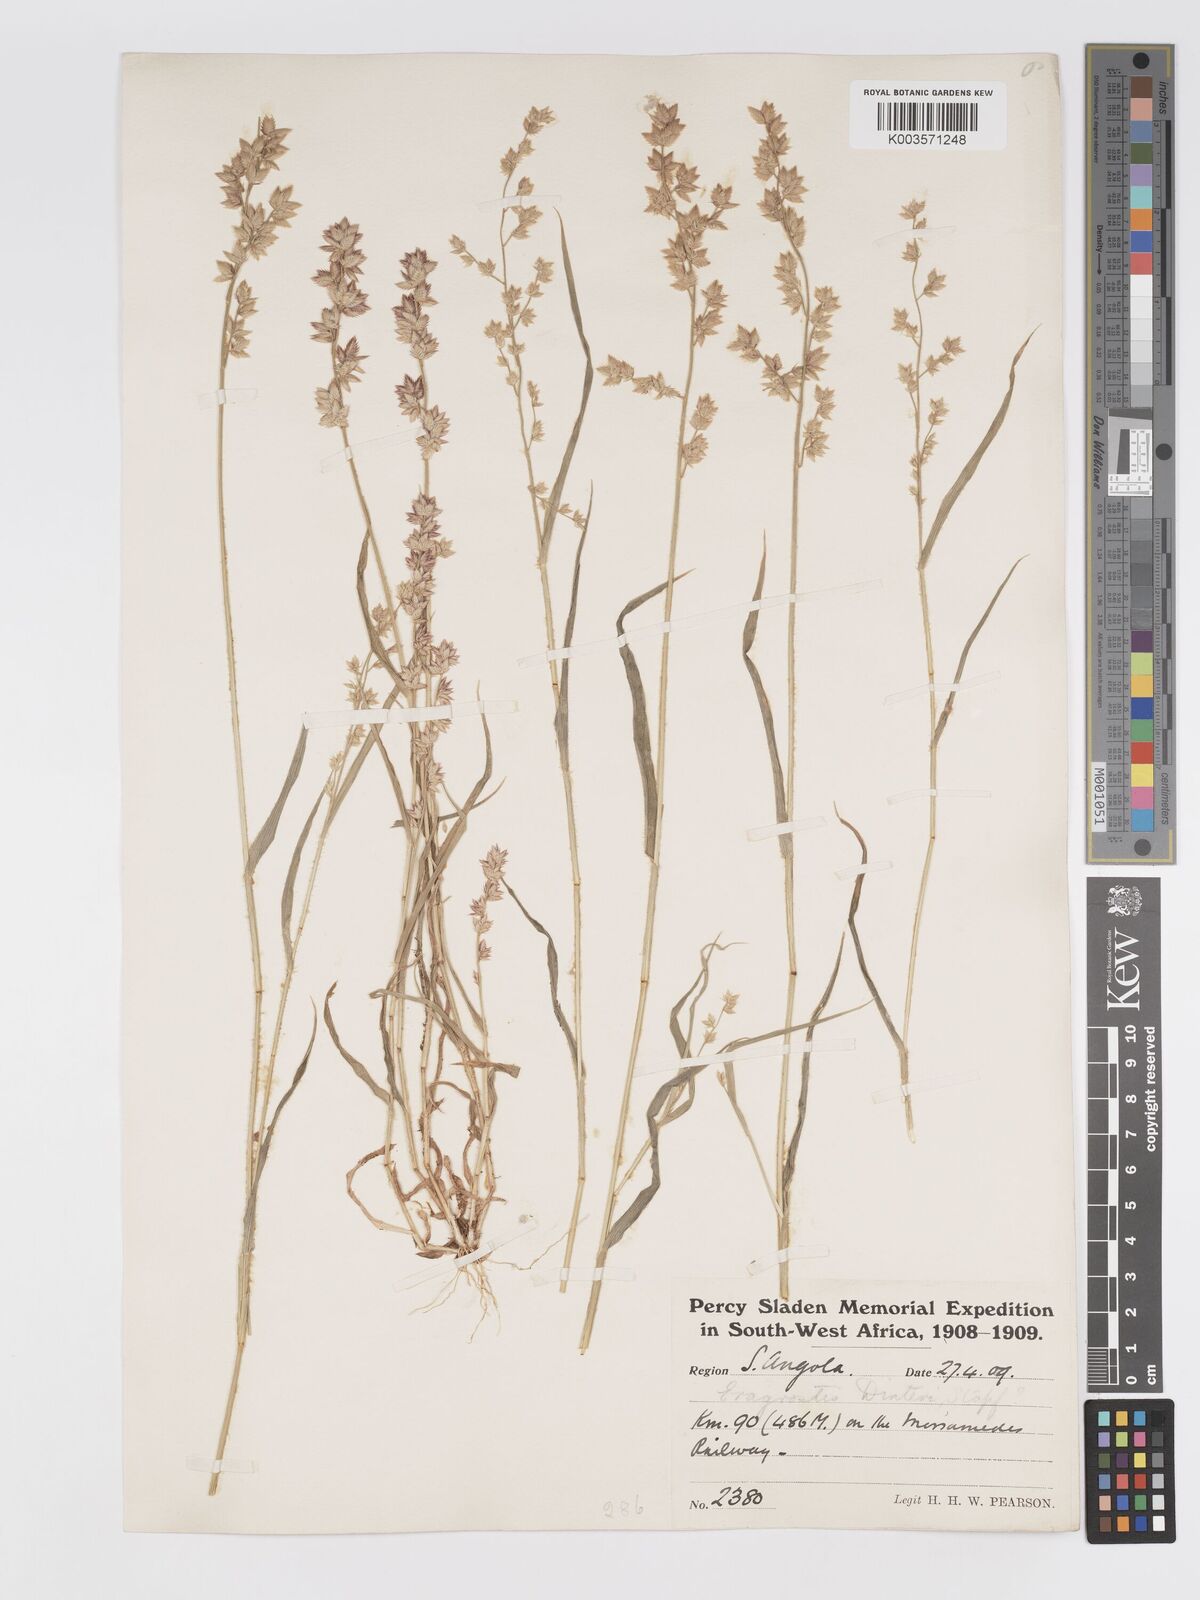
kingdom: Plantae
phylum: Tracheophyta
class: Liliopsida
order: Poales
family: Poaceae
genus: Eragrostis
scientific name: Eragrostis variegata
